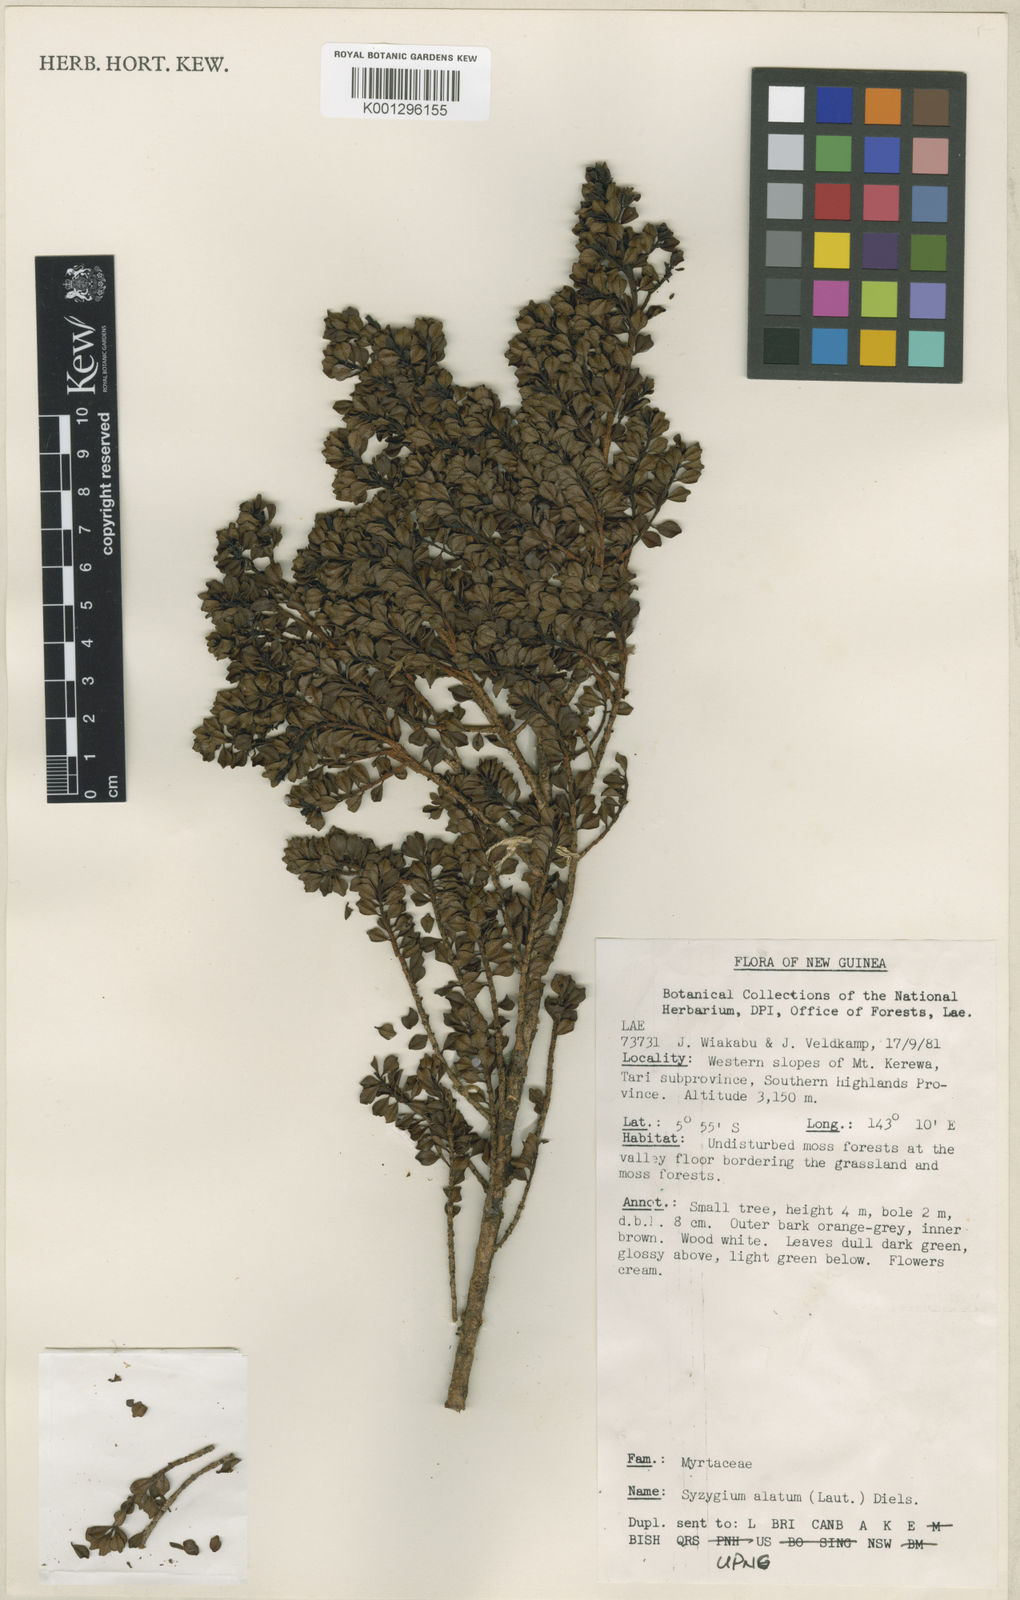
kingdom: Plantae
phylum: Tracheophyta
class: Magnoliopsida
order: Myrtales
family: Myrtaceae
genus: Syzygium
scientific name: Syzygium alatum
